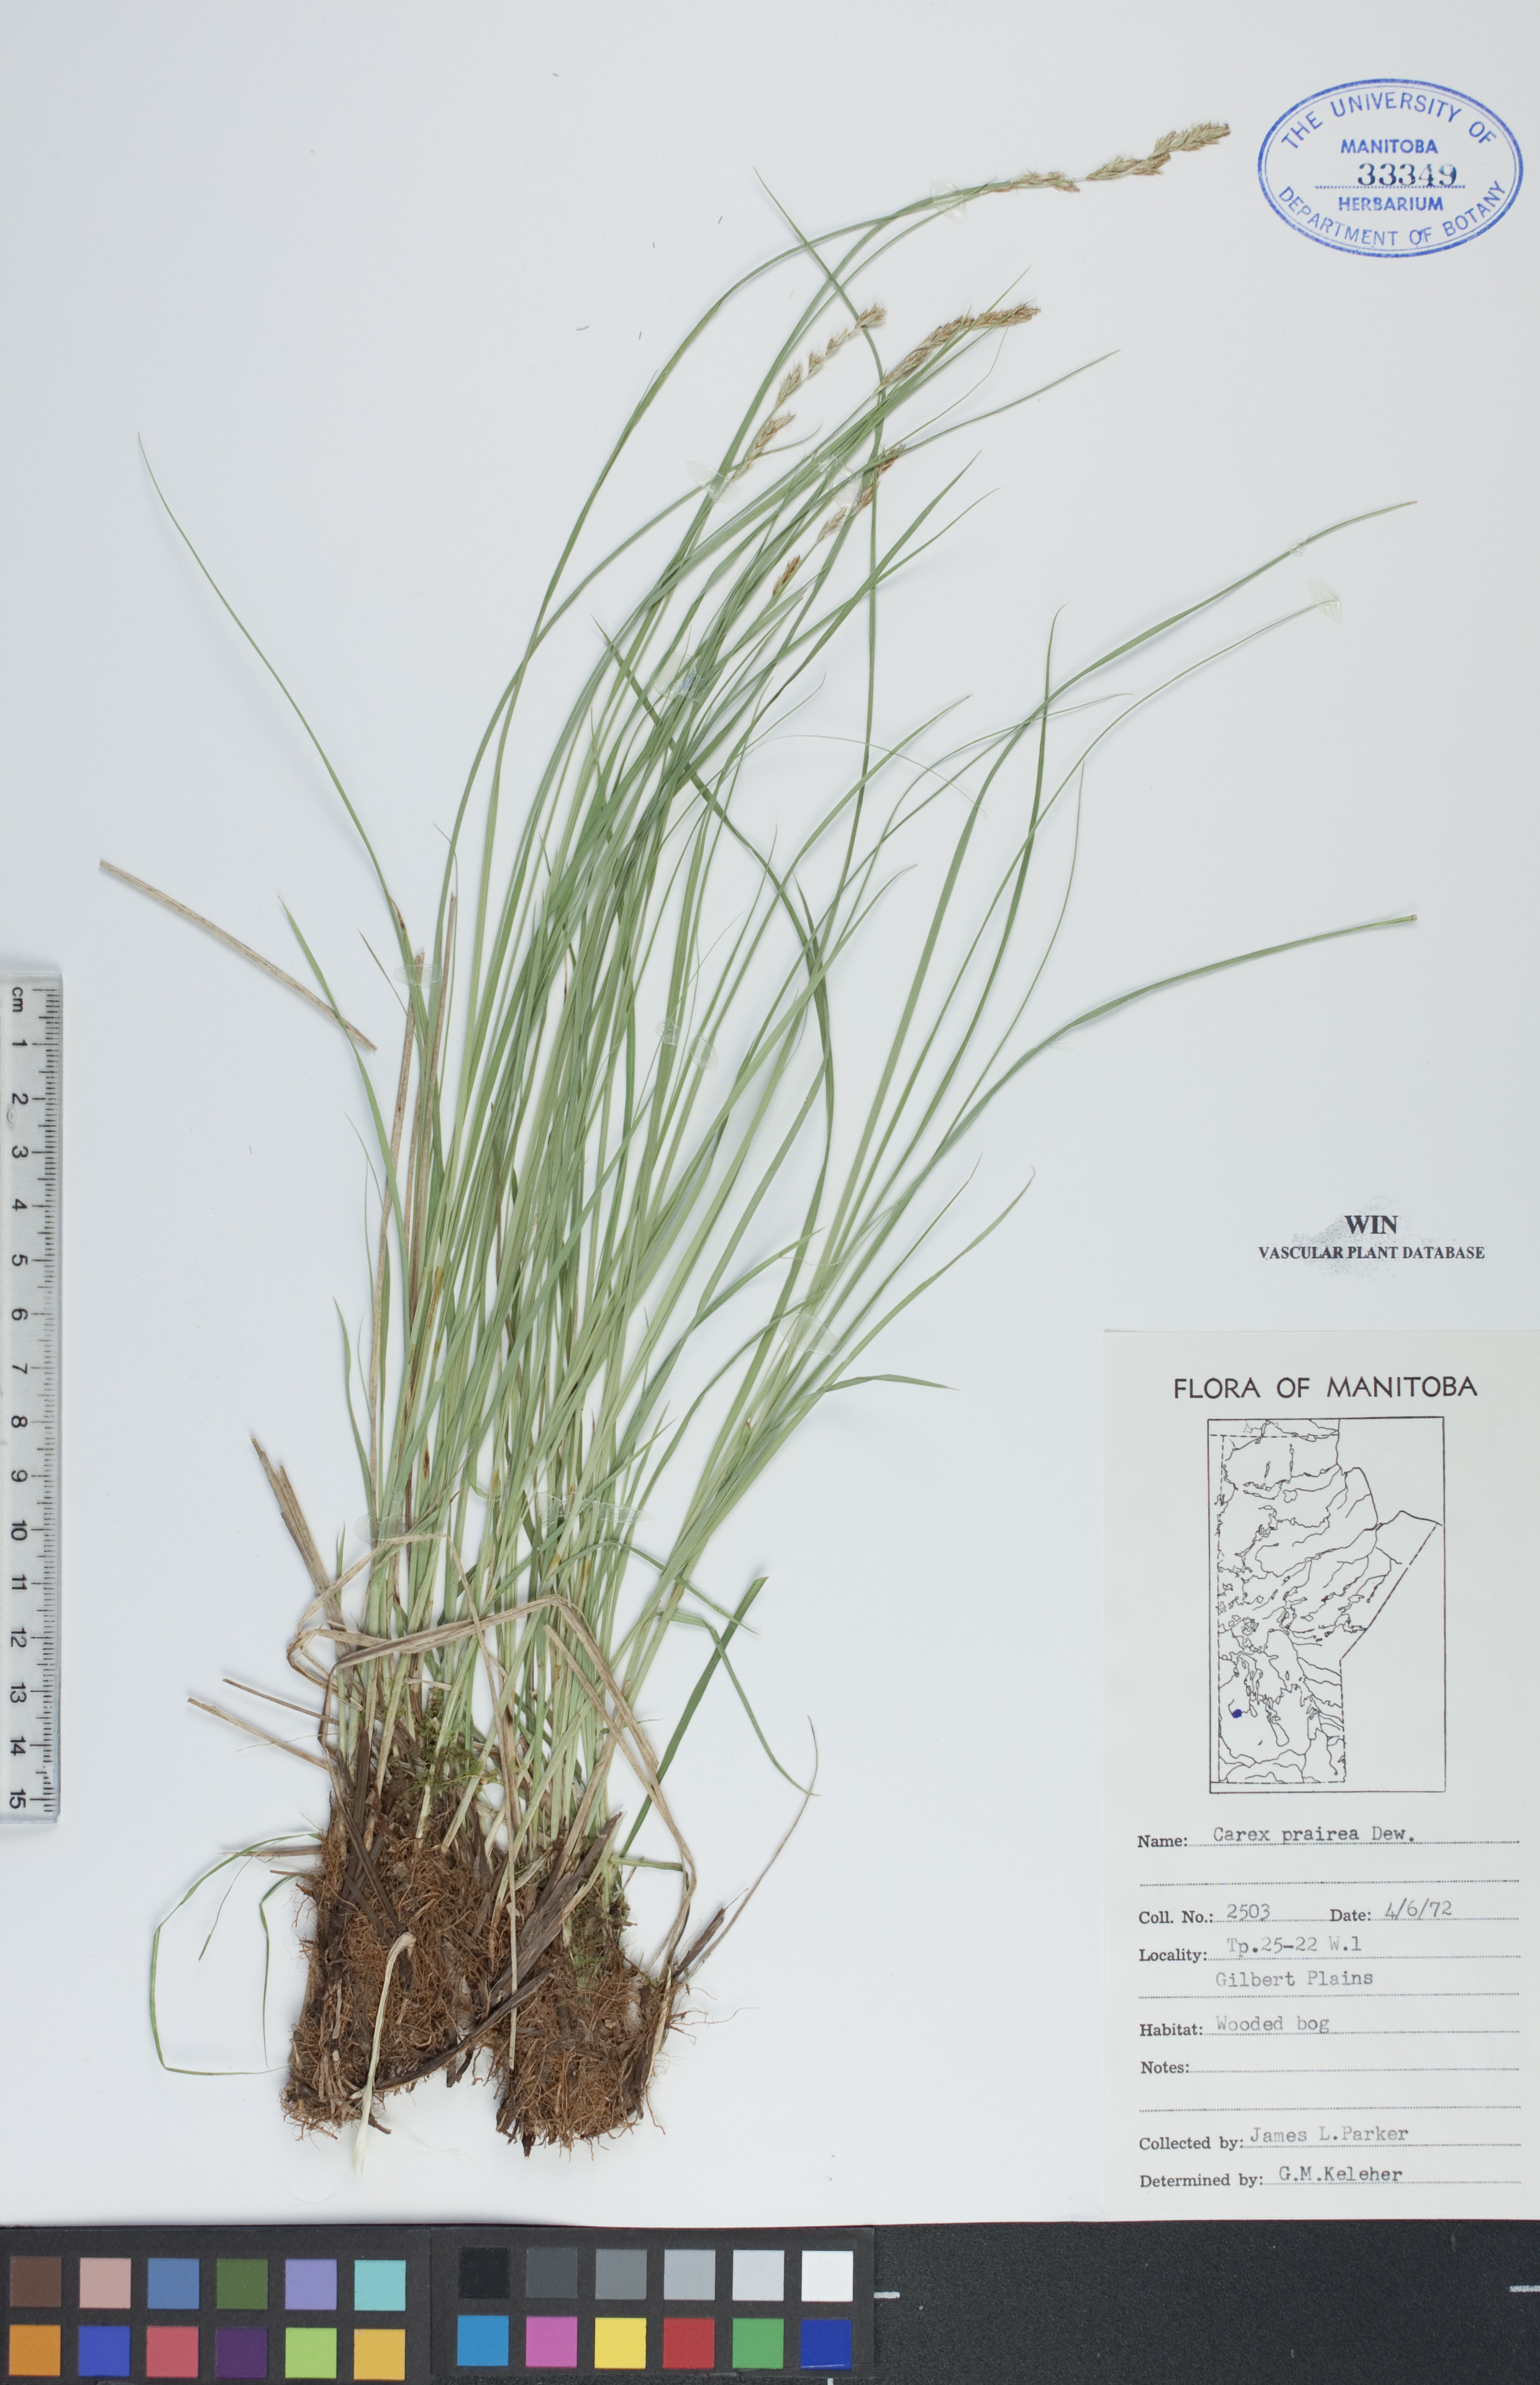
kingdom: Plantae
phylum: Tracheophyta
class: Liliopsida
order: Poales
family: Cyperaceae
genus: Carex
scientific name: Carex prairea
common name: Prairie sedge
